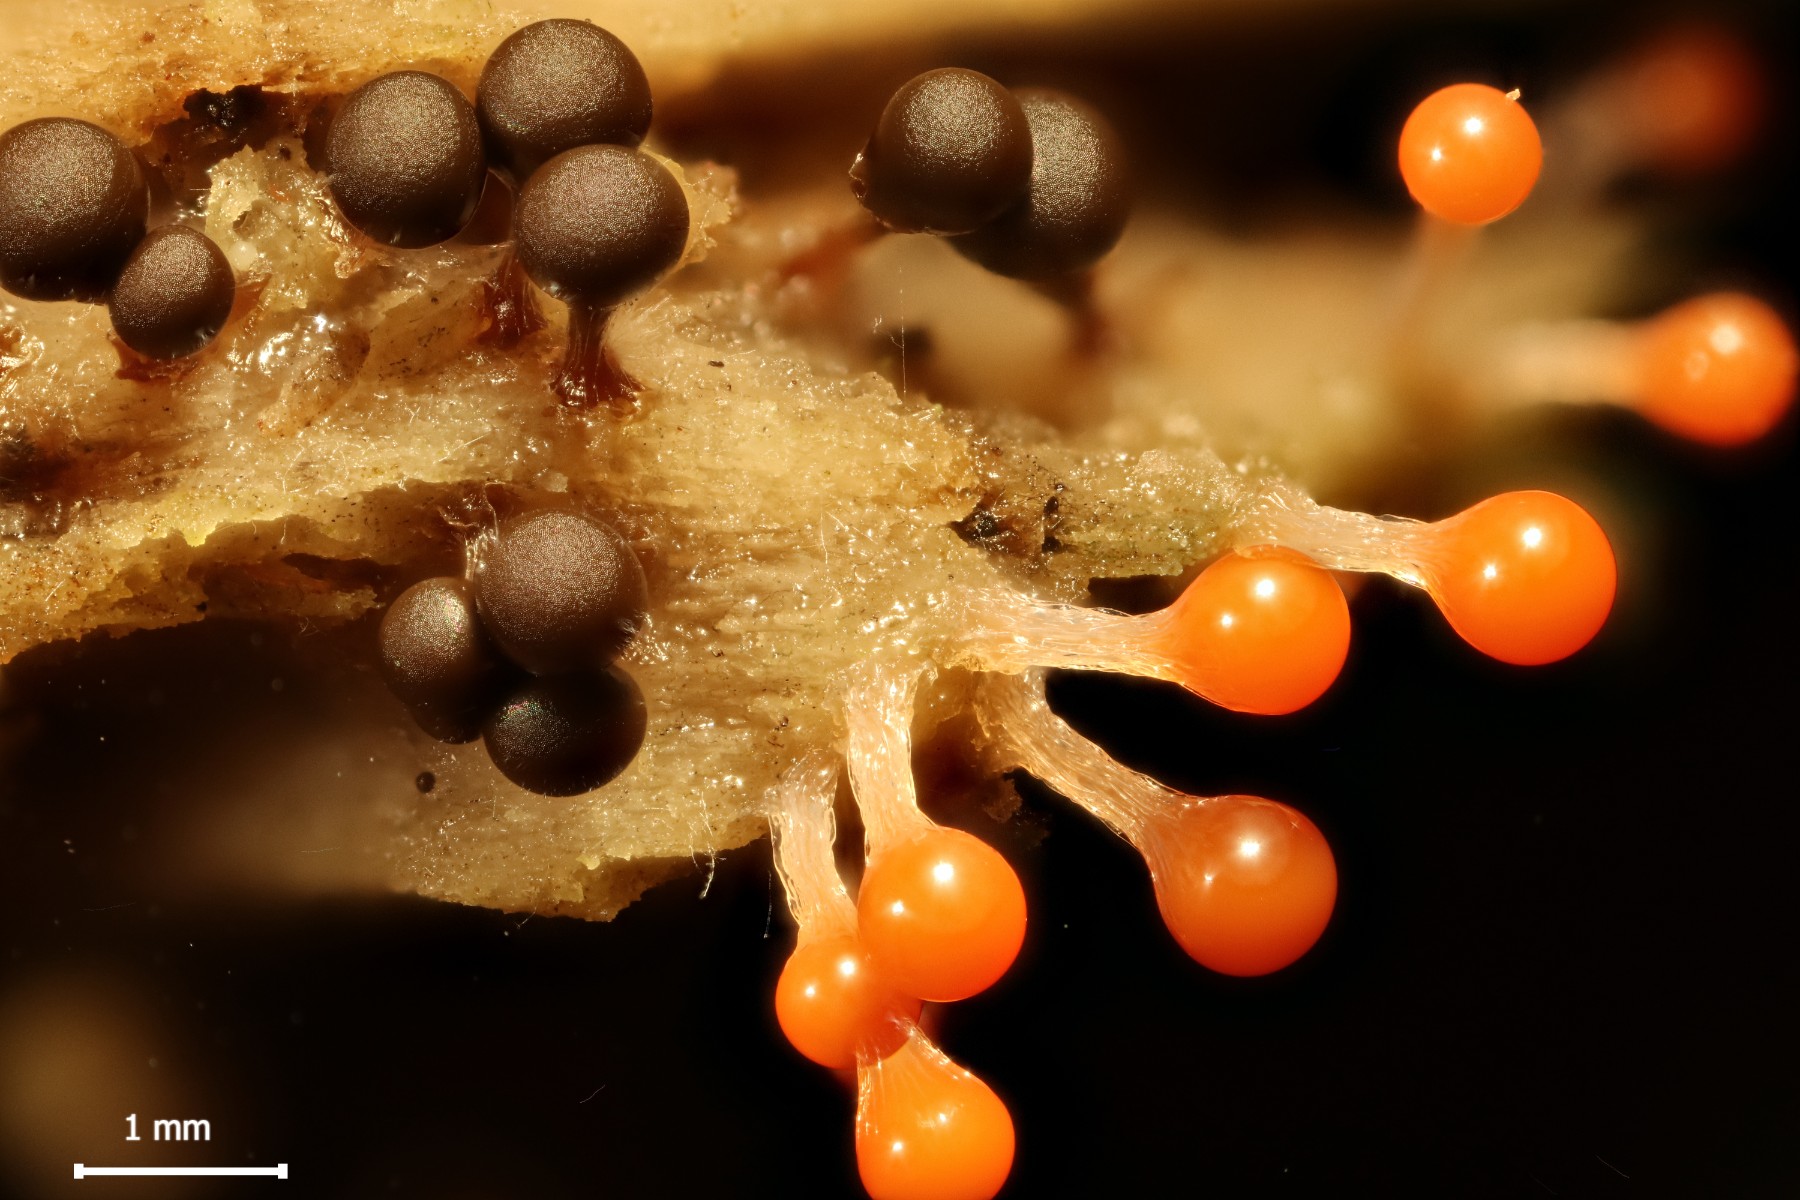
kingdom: Protozoa
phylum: Mycetozoa
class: Myxomycetes
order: Trichiales
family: Trichiaceae
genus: Trichia
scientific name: Trichia crateriformis
